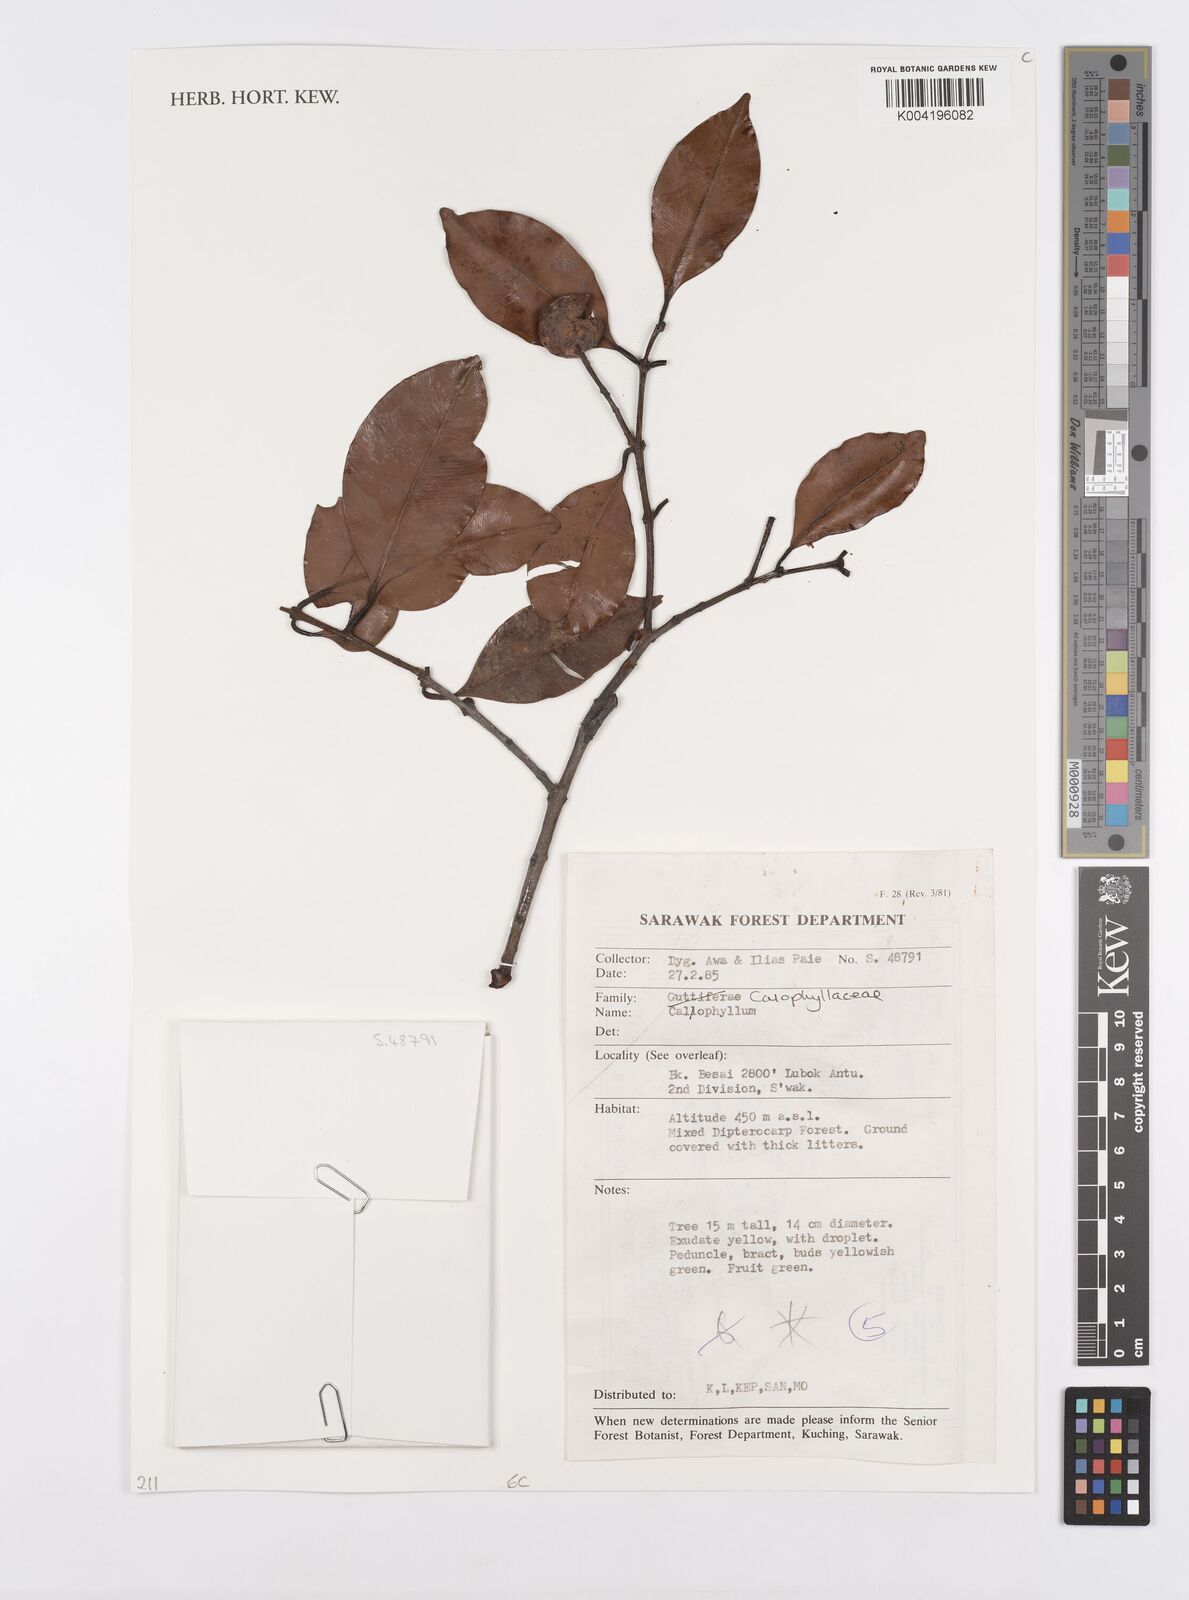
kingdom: Plantae
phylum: Tracheophyta
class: Magnoliopsida
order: Malpighiales
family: Calophyllaceae
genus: Calophyllum
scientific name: Calophyllum
